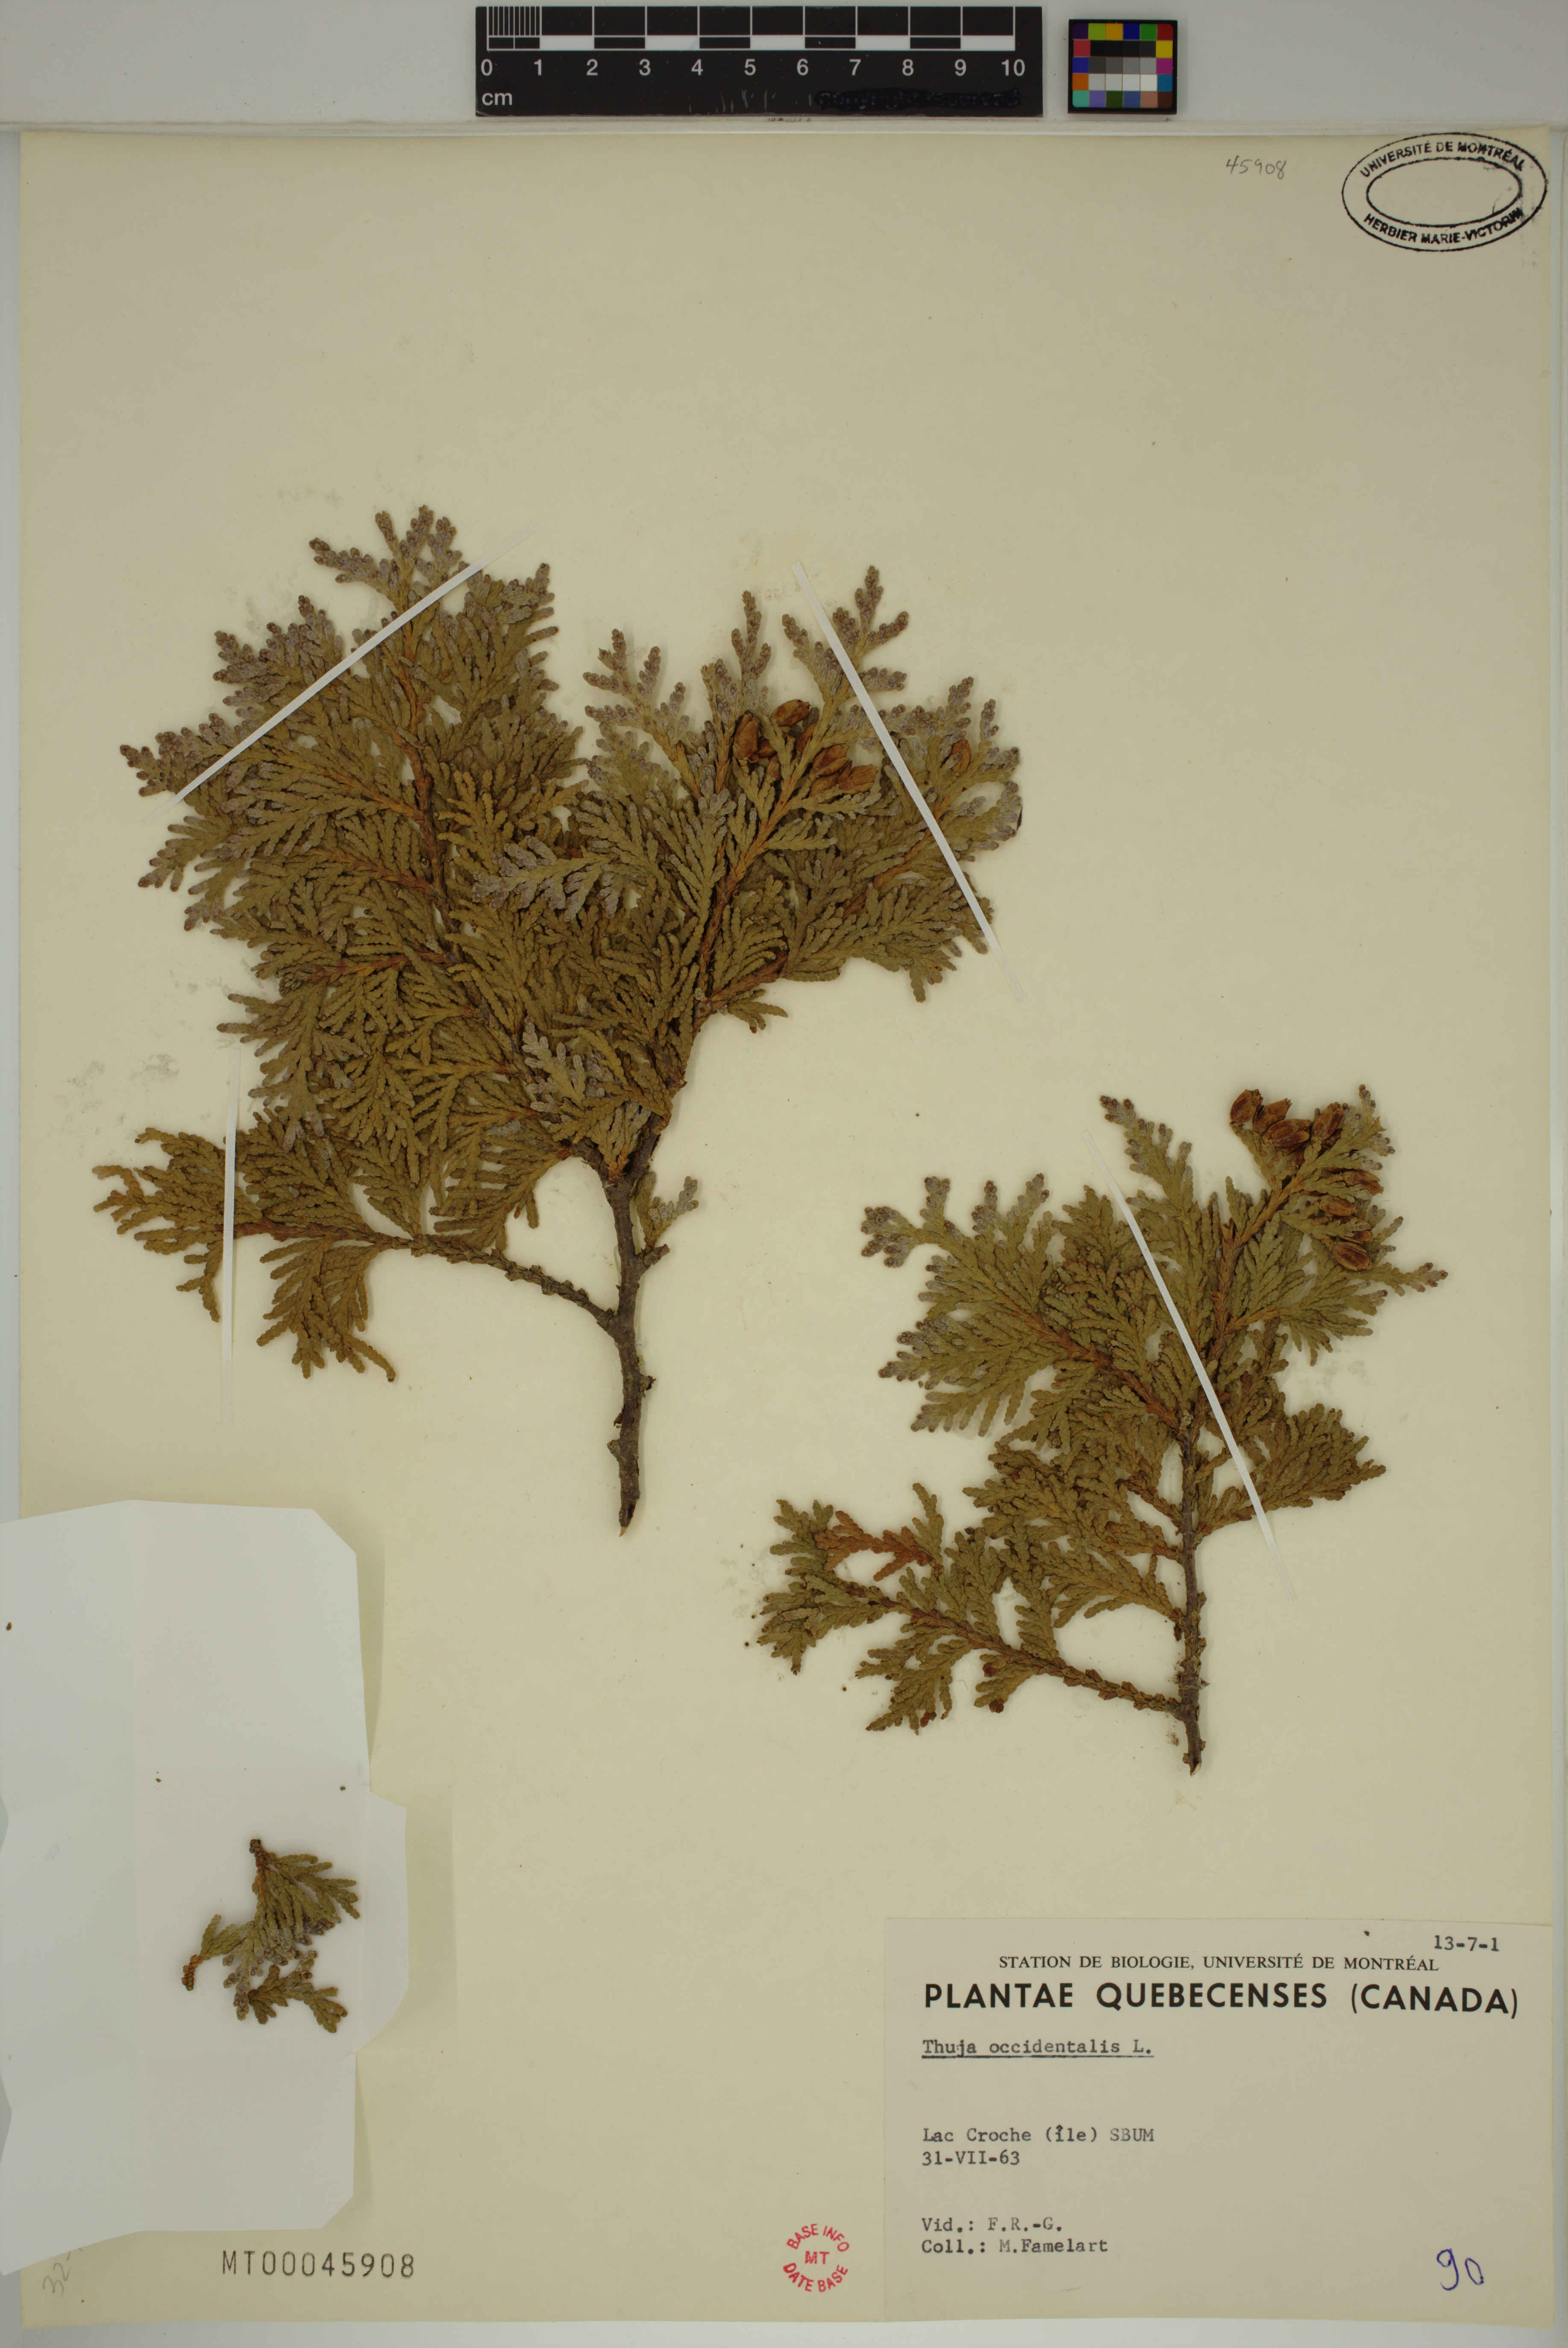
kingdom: Plantae
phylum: Tracheophyta
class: Pinopsida
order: Pinales
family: Cupressaceae
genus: Thuja
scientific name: Thuja occidentalis
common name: Northern white-cedar
